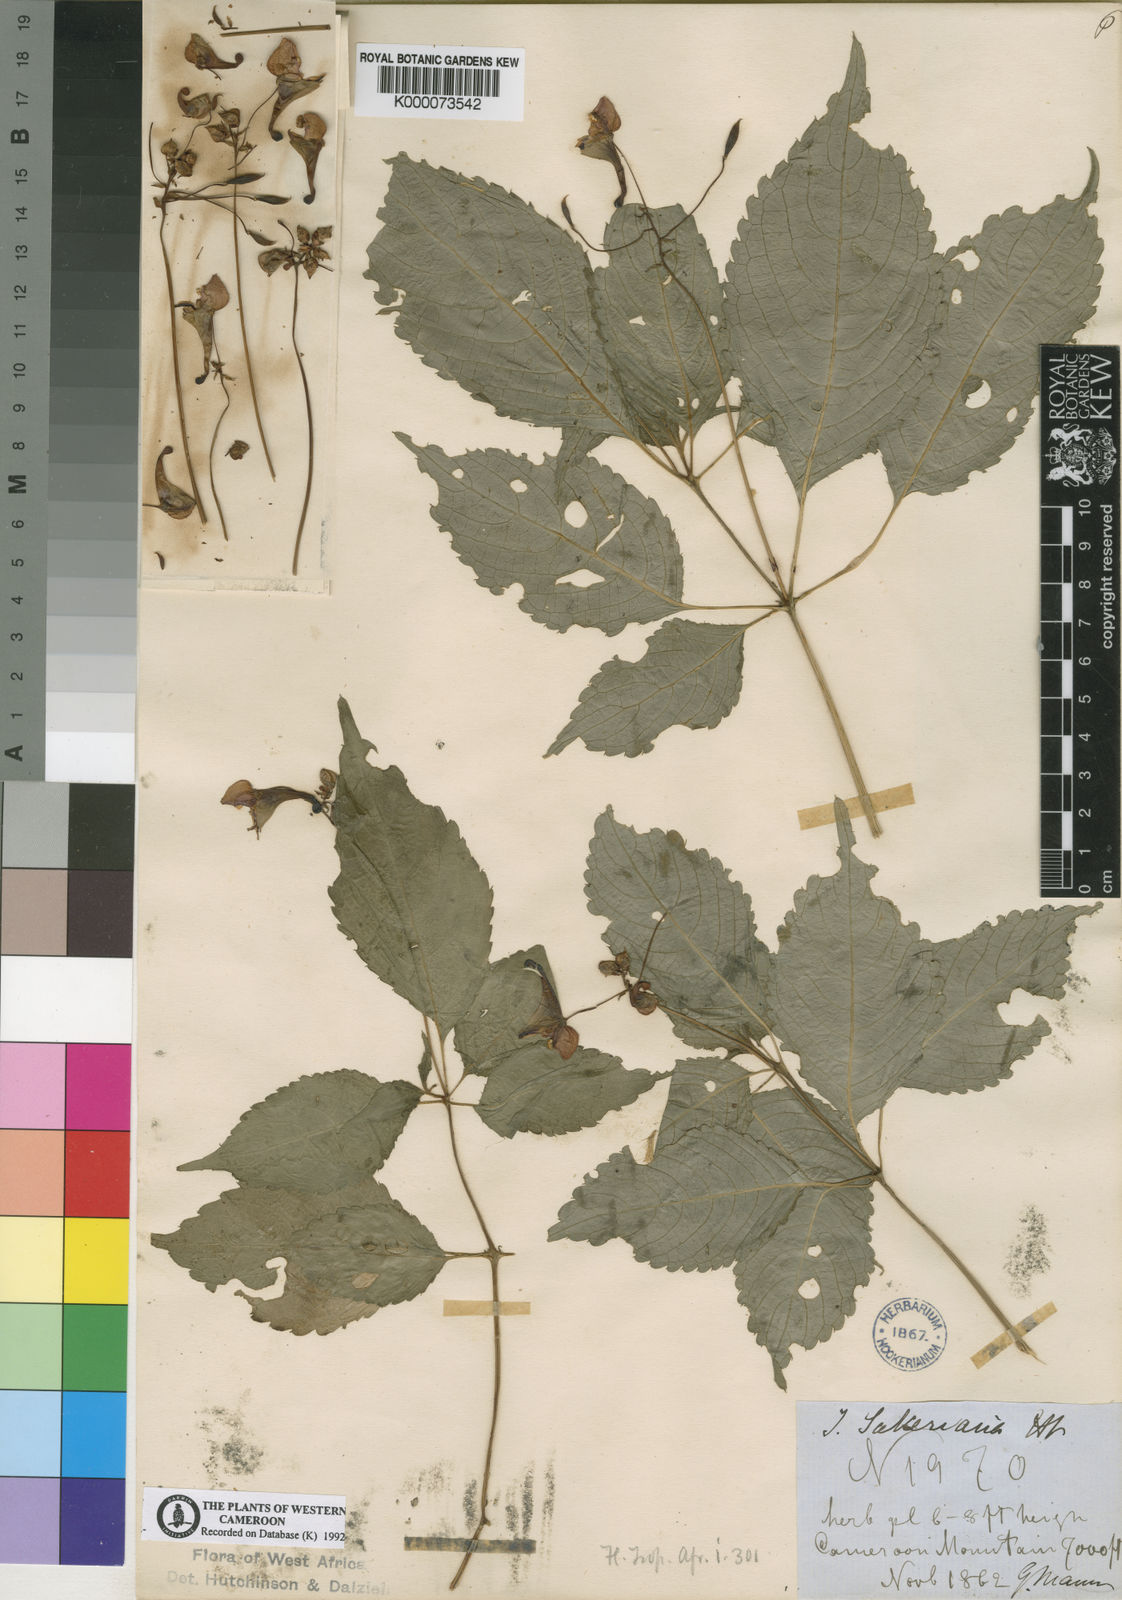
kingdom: Plantae
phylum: Tracheophyta
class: Magnoliopsida
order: Ericales
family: Balsaminaceae
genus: Impatiens
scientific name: Impatiens sakeriana
